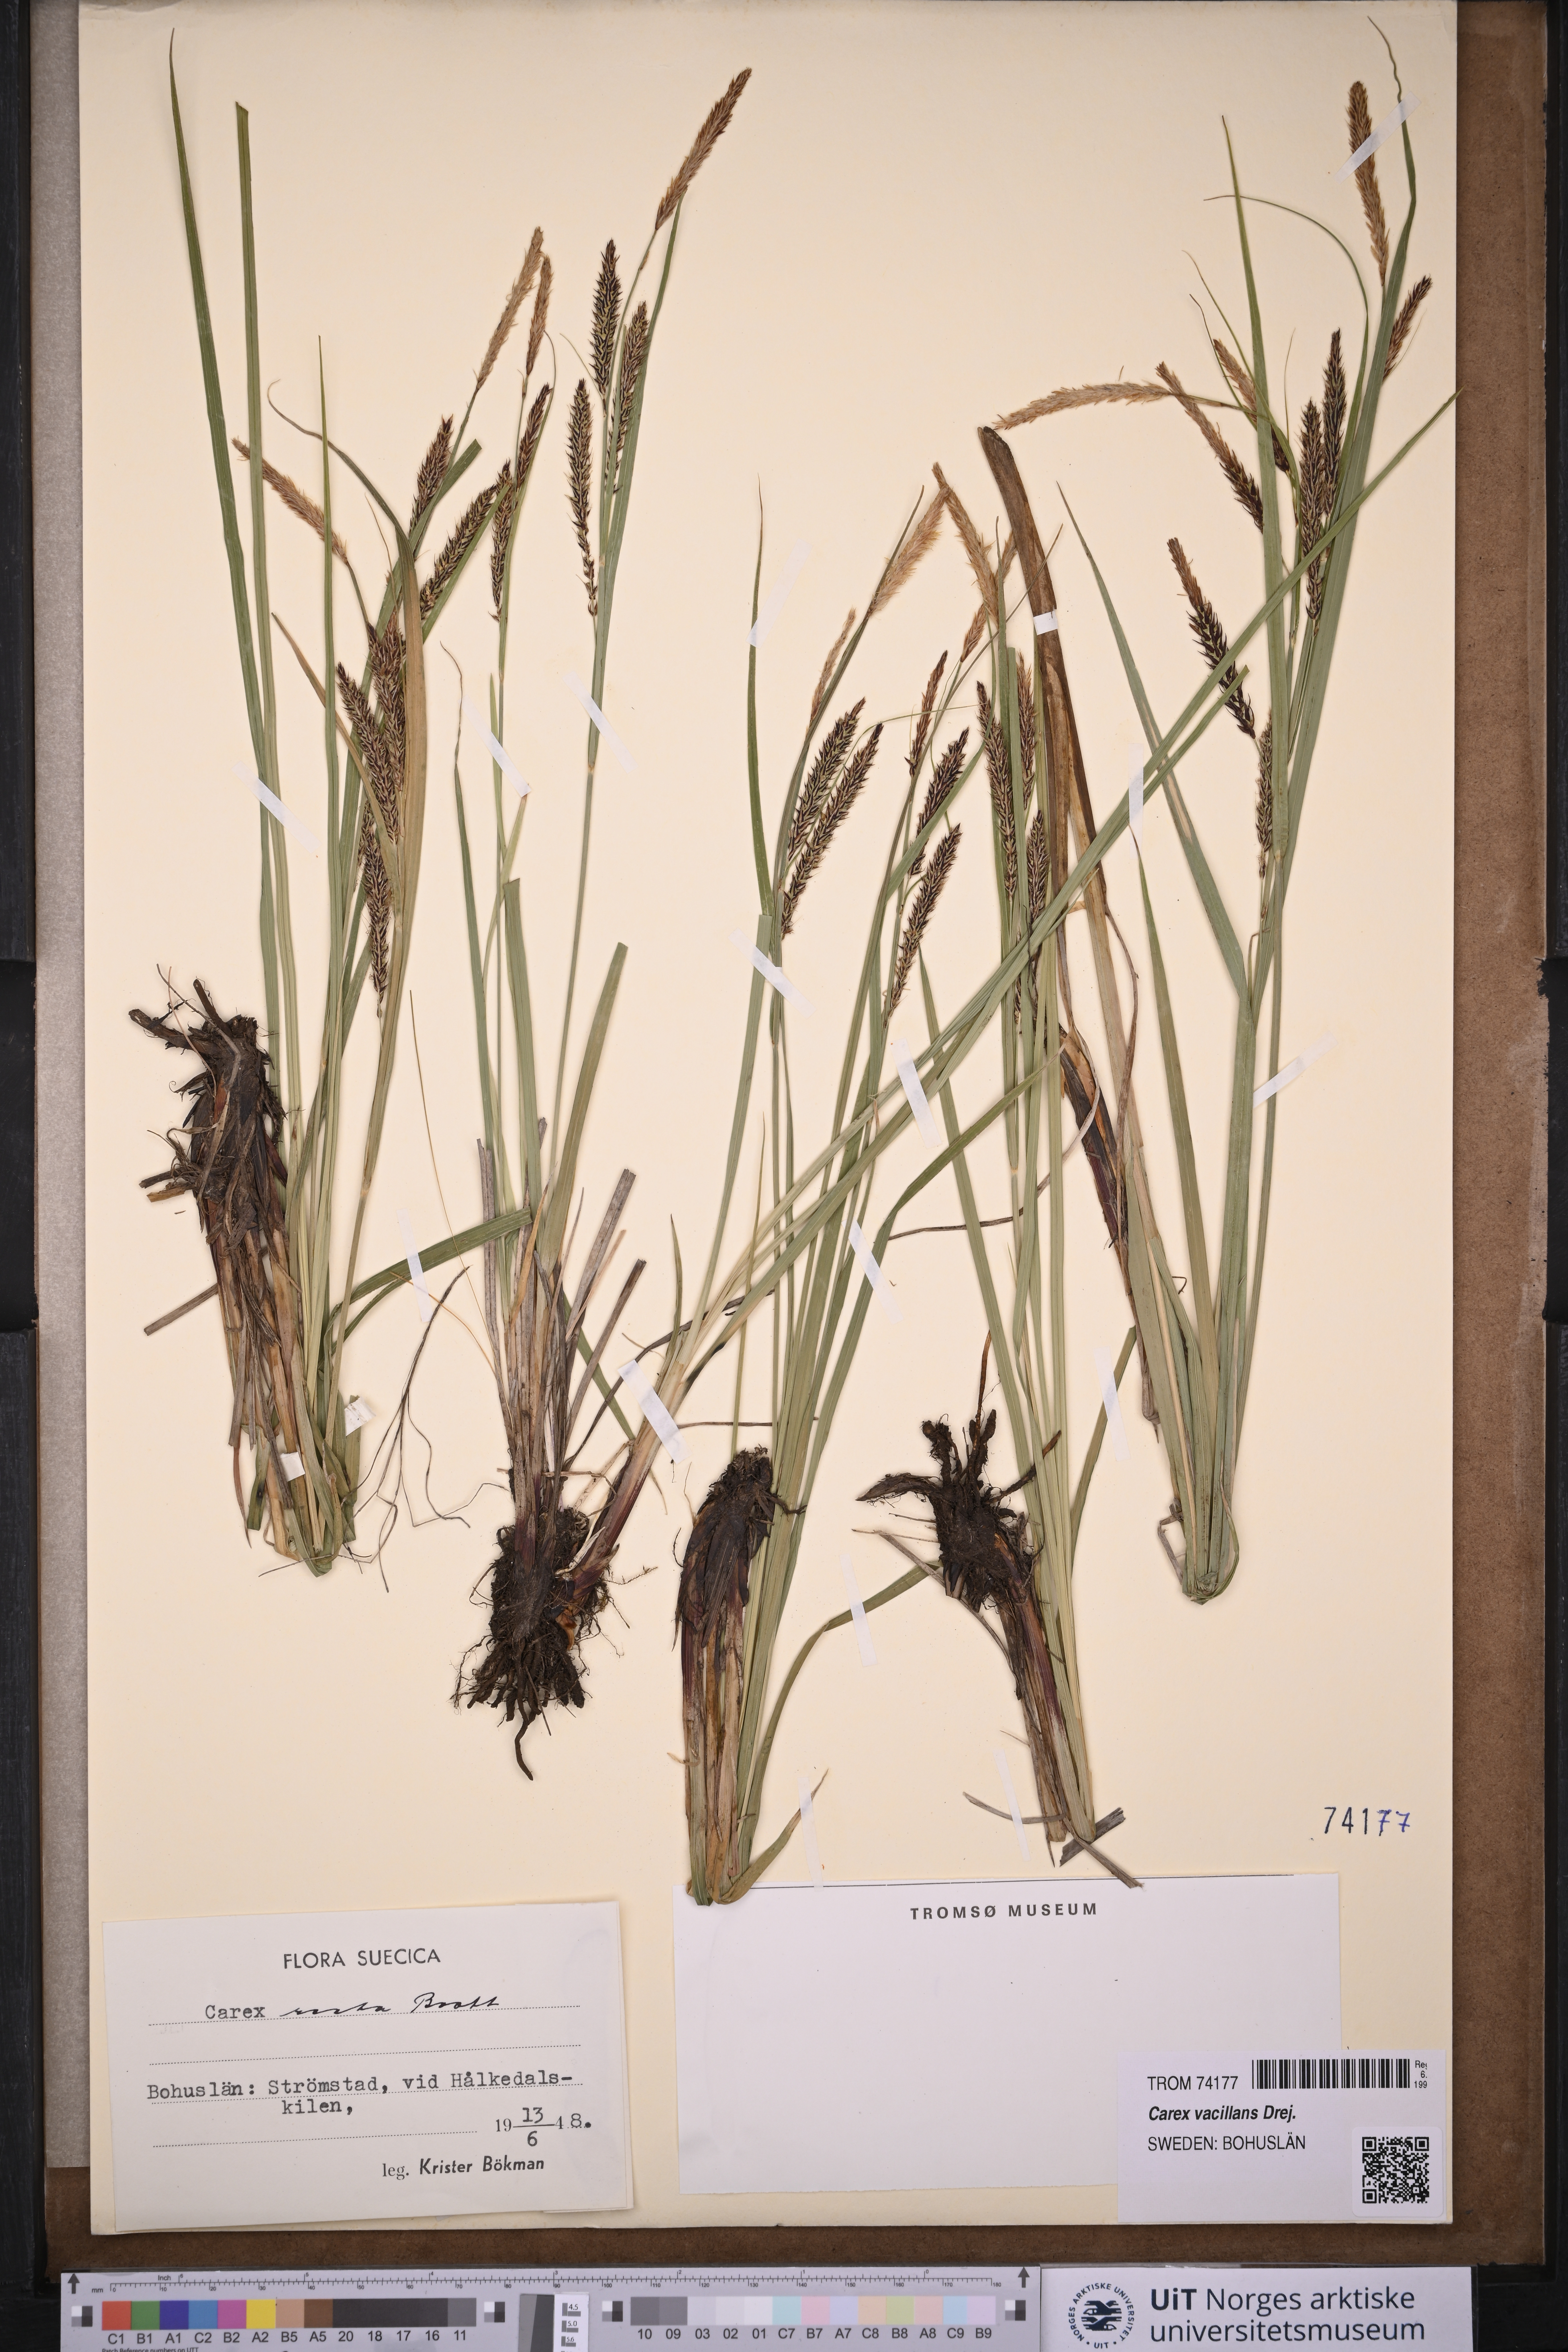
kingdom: Plantae
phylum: Tracheophyta
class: Liliopsida
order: Poales
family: Cyperaceae
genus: Carex
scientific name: Carex vacillans
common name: Sedge
